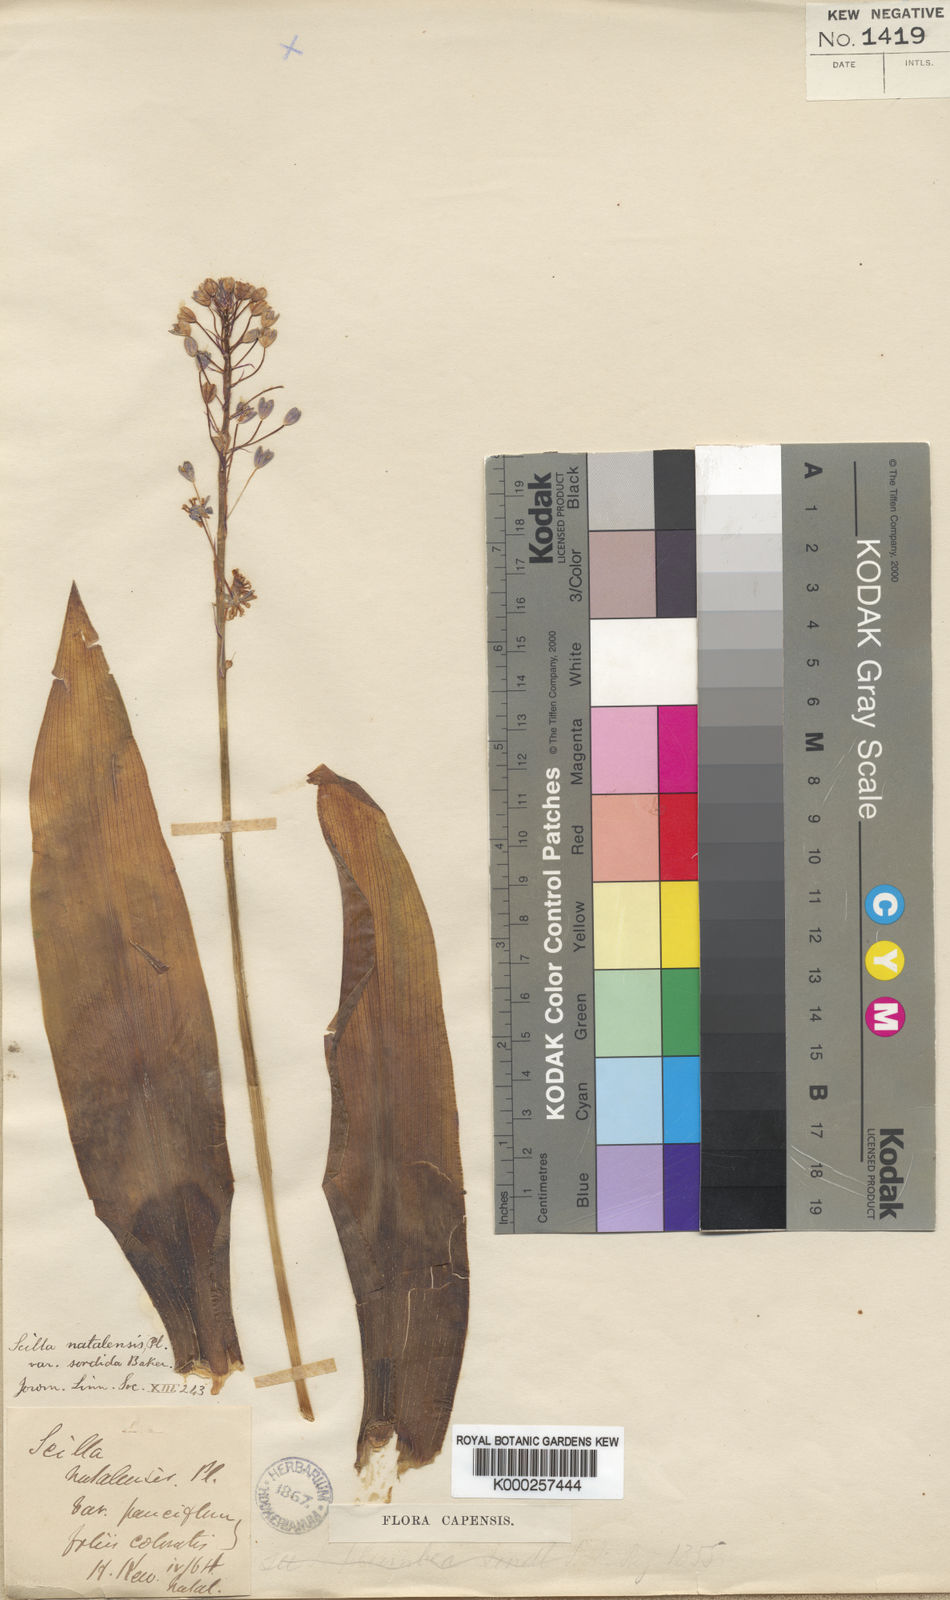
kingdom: Plantae
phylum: Tracheophyta
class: Liliopsida
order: Asparagales
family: Asparagaceae
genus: Merwilla
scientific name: Merwilla plumbea
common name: Blue-squill
